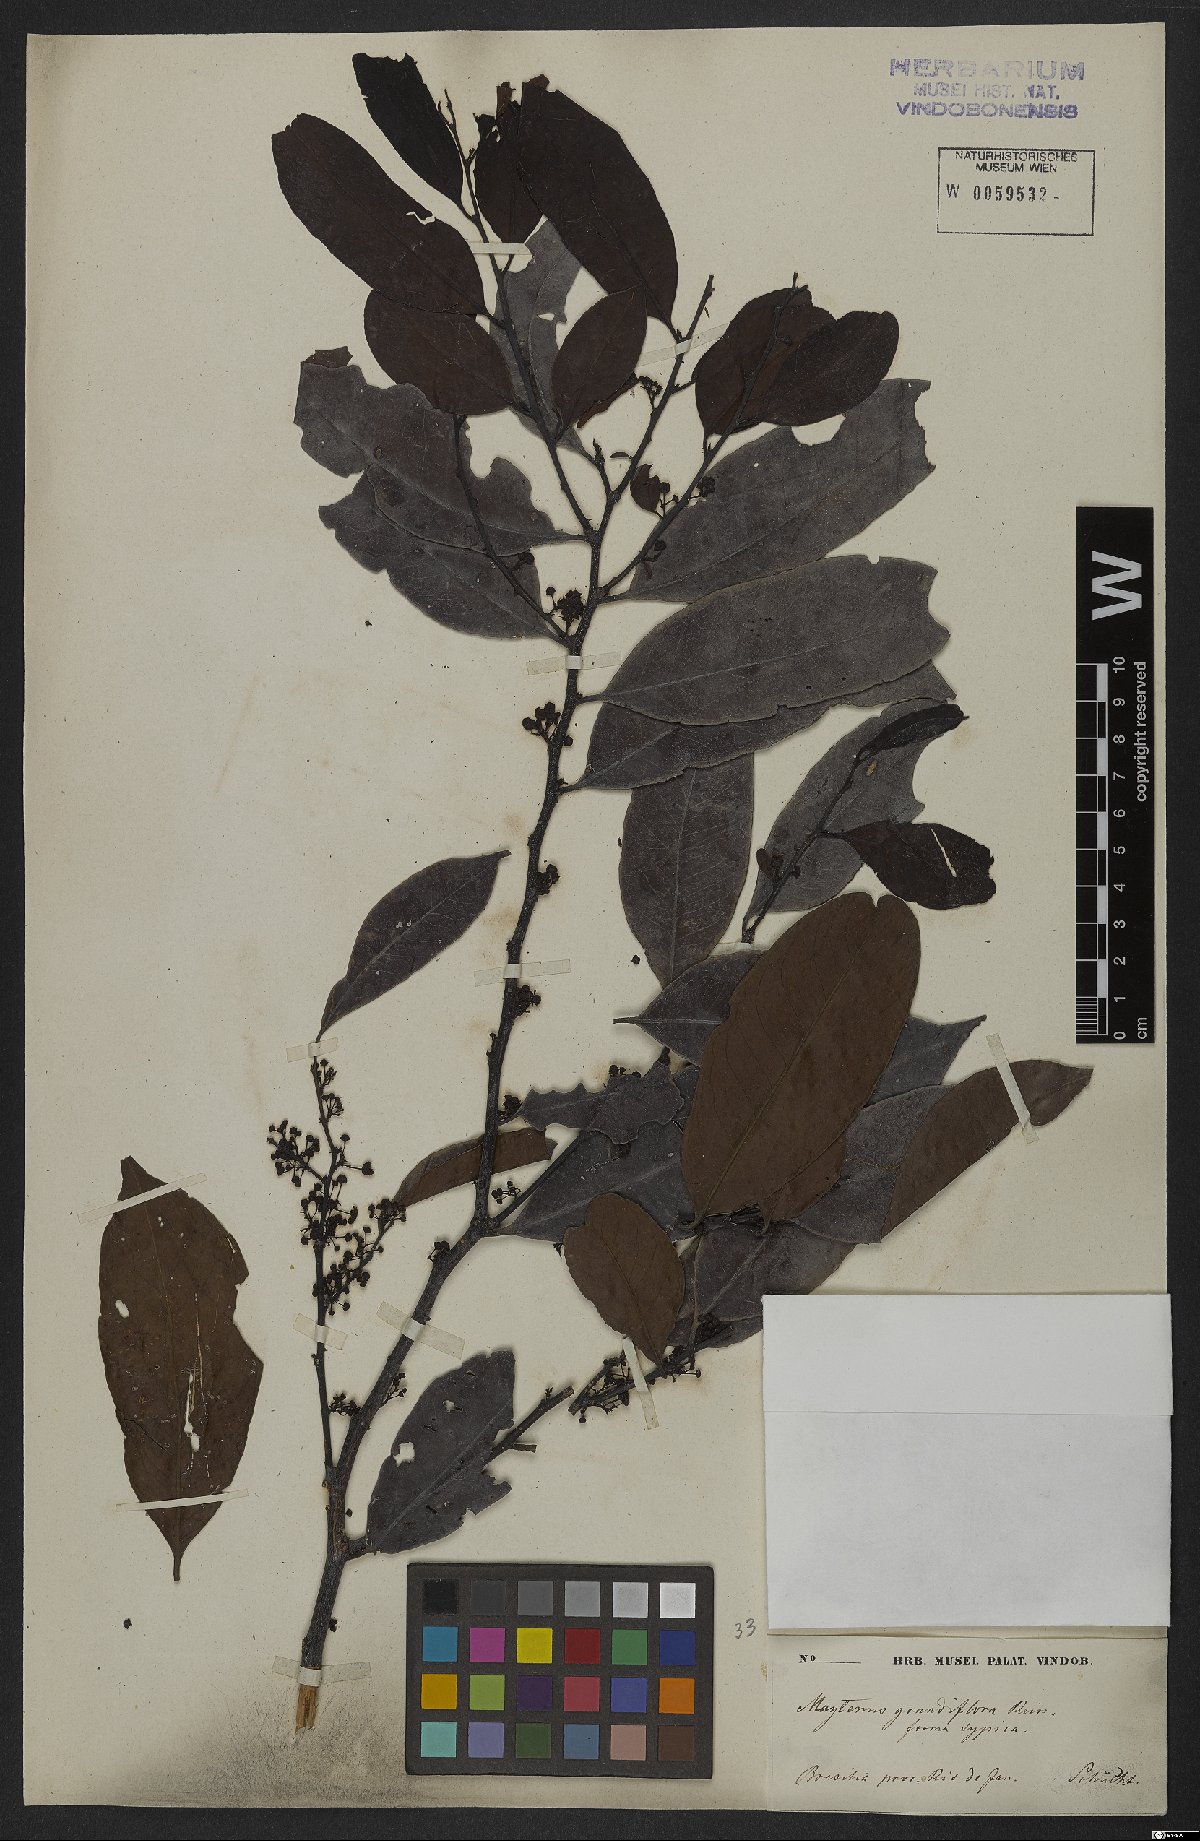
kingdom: Plantae
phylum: Tracheophyta
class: Magnoliopsida
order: Celastrales
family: Celastraceae
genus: Monteverdia
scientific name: Monteverdia communis
